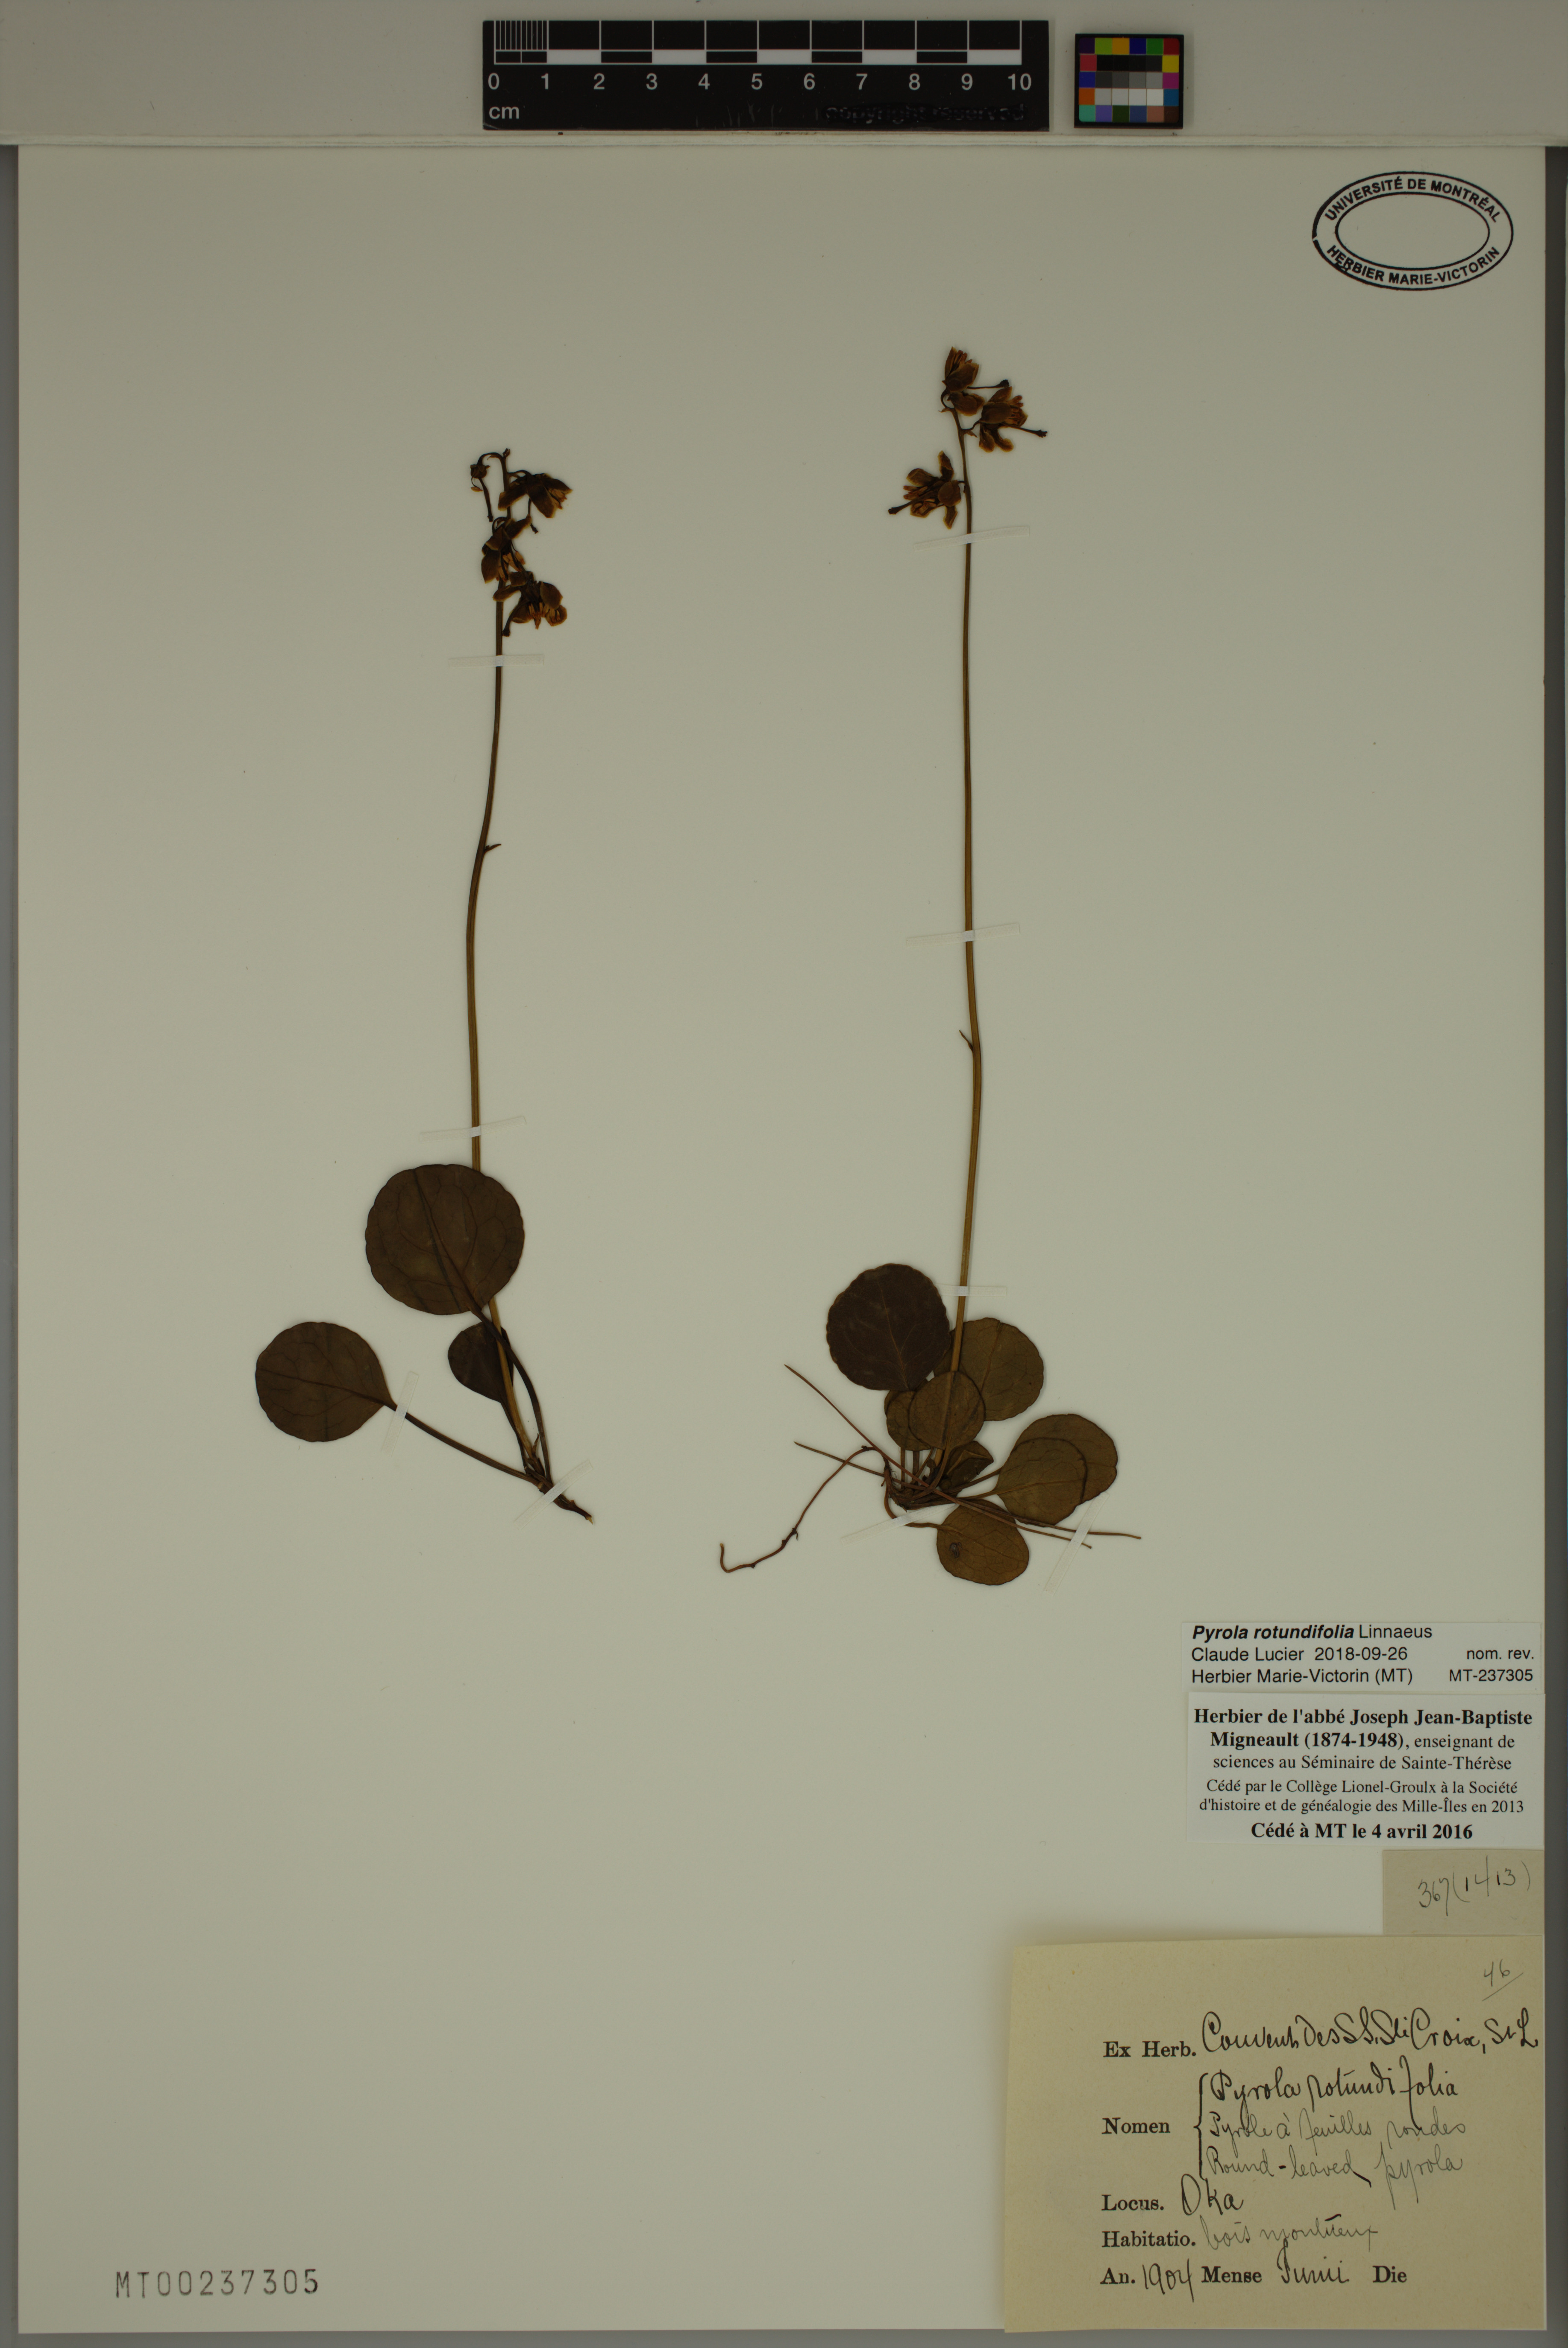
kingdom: Plantae
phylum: Tracheophyta
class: Magnoliopsida
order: Ericales
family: Ericaceae
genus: Pyrola
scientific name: Pyrola rotundifolia
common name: Round-leaved wintergreen
